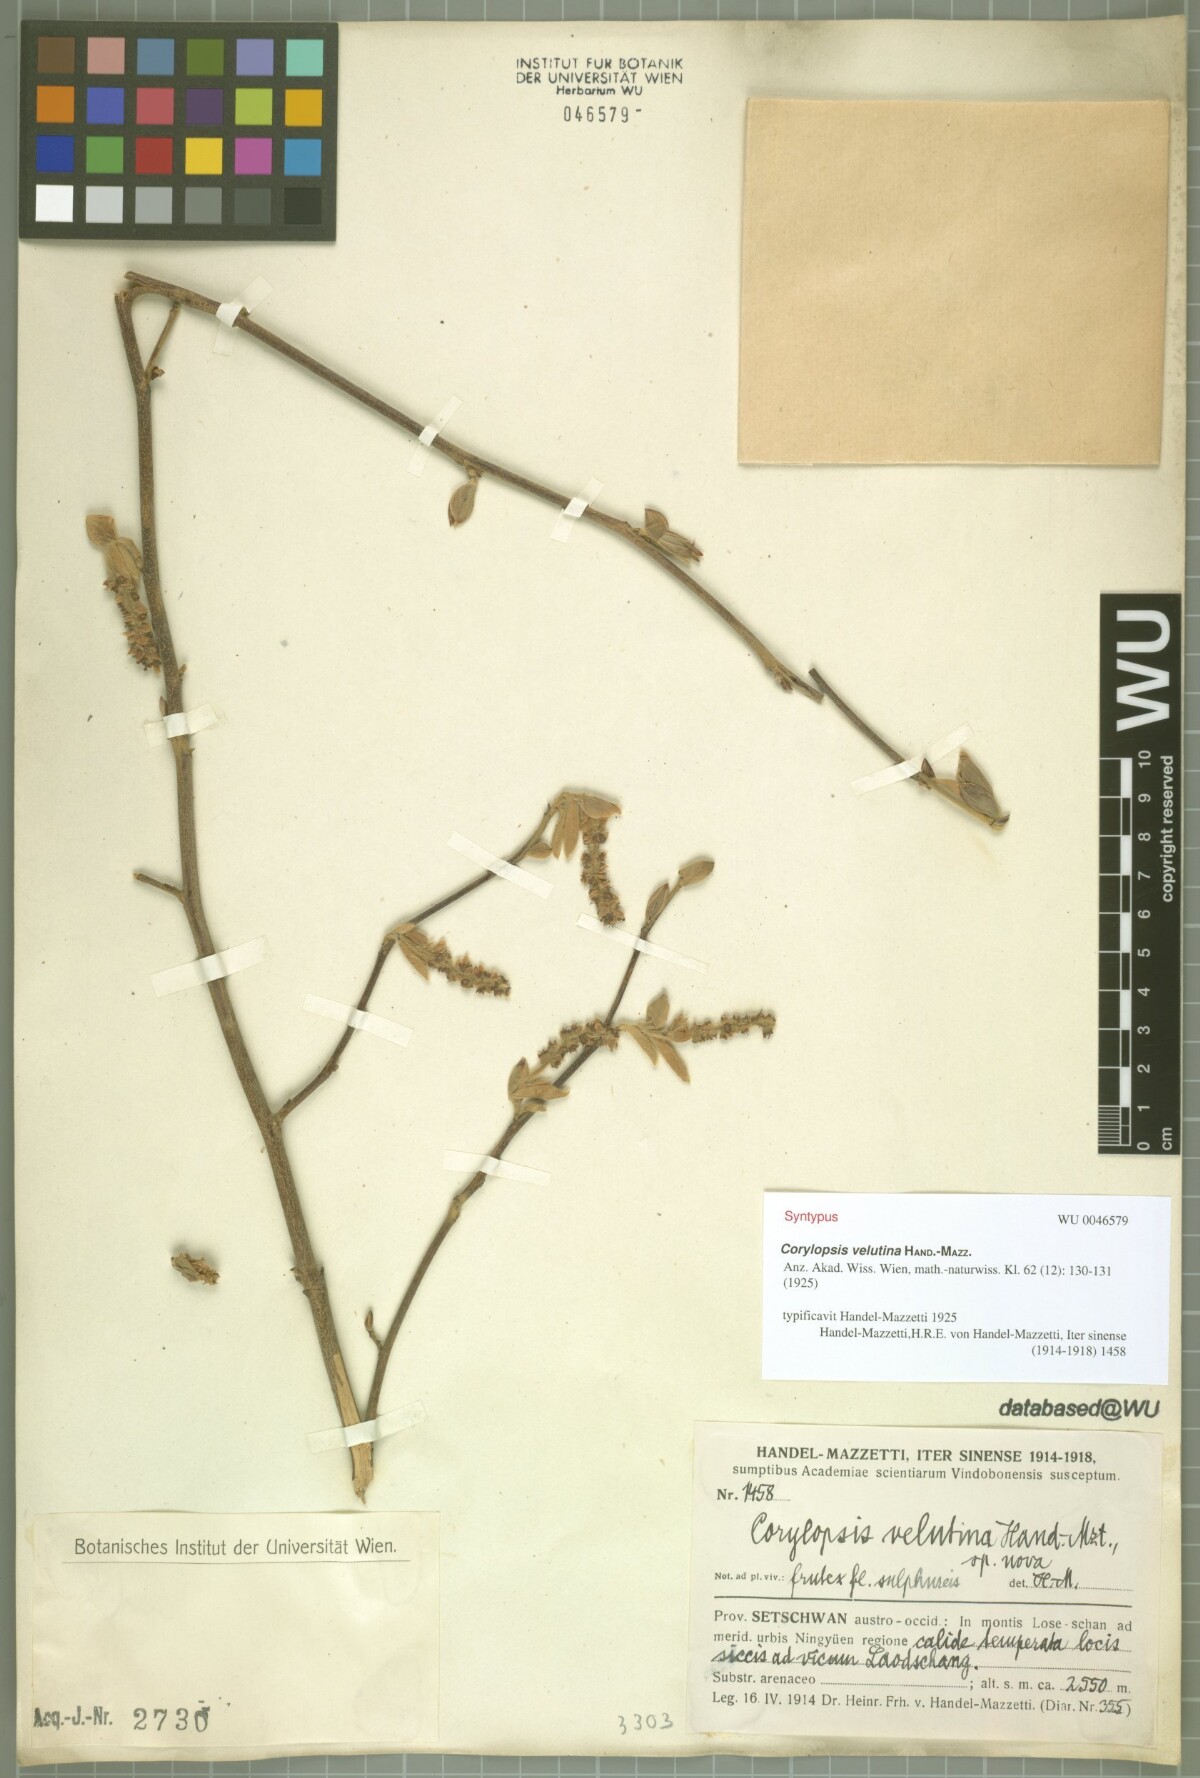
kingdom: Plantae
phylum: Tracheophyta
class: Magnoliopsida
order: Saxifragales
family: Hamamelidaceae
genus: Corylopsis
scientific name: Corylopsis velutina
